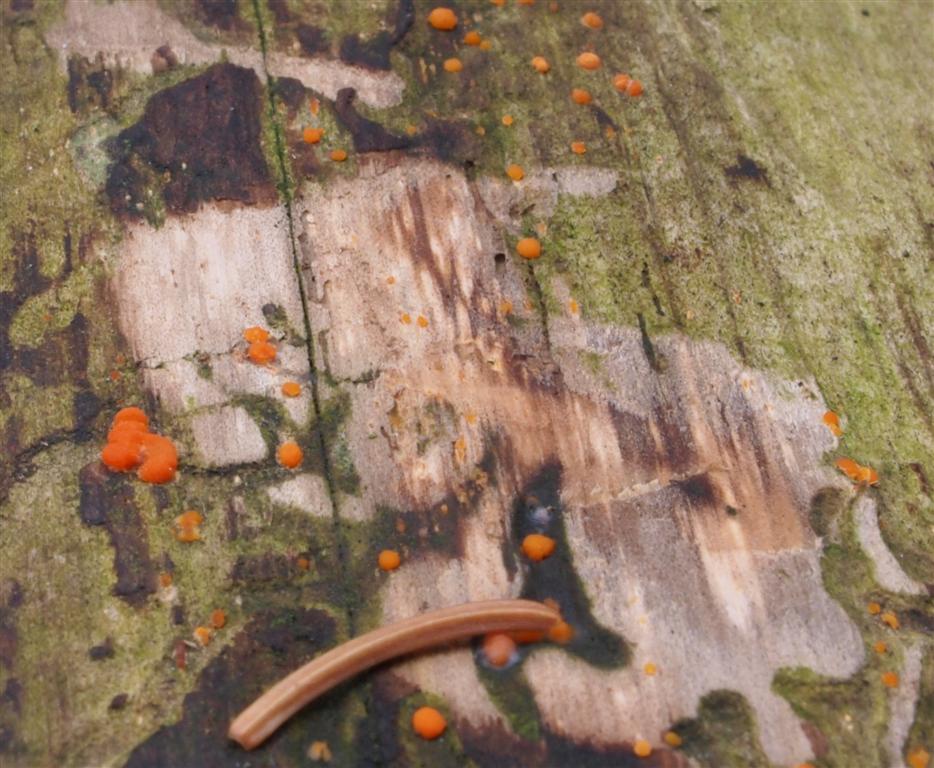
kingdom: Fungi
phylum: Basidiomycota
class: Dacrymycetes
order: Dacrymycetales
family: Dacrymycetaceae
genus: Dacrymyces
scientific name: Dacrymyces stillatus
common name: almindelig tåresvamp
